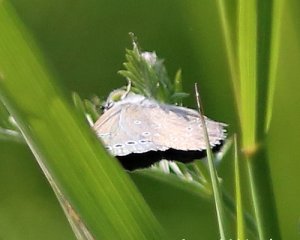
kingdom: Animalia
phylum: Arthropoda
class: Insecta
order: Lepidoptera
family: Lycaenidae
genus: Glaucopsyche
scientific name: Glaucopsyche lygdamus
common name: Silvery Blue
